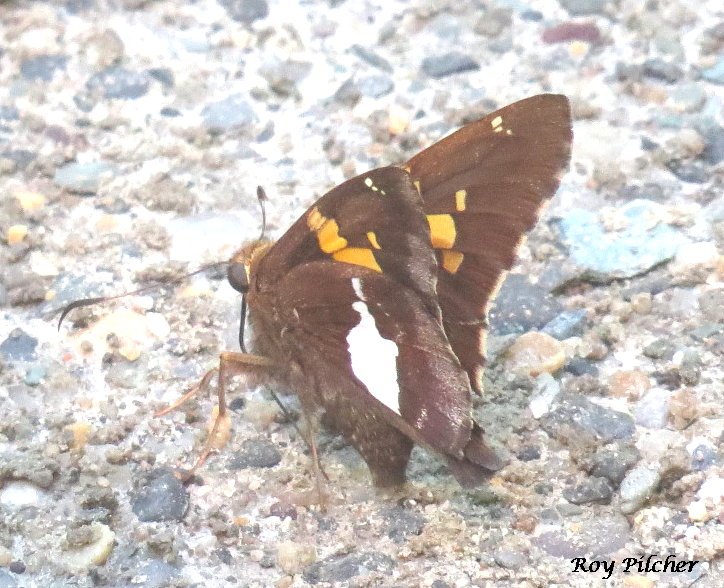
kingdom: Animalia
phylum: Arthropoda
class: Insecta
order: Lepidoptera
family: Hesperiidae
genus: Epargyreus
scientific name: Epargyreus clarus
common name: Silver-spotted Skipper
